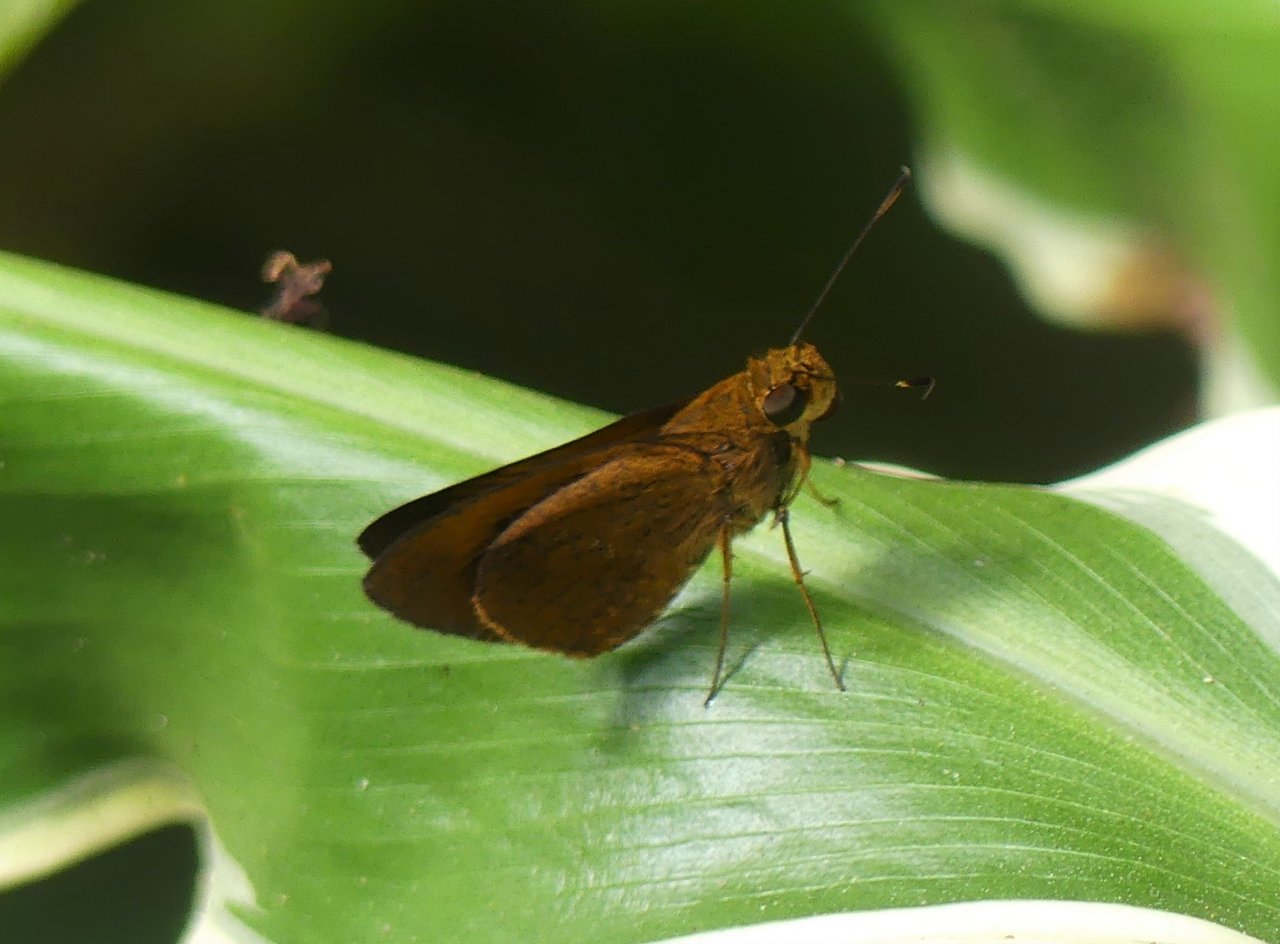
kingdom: Animalia
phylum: Arthropoda
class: Insecta
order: Lepidoptera
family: Hesperiidae
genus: Enosis
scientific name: Enosis immaculata
